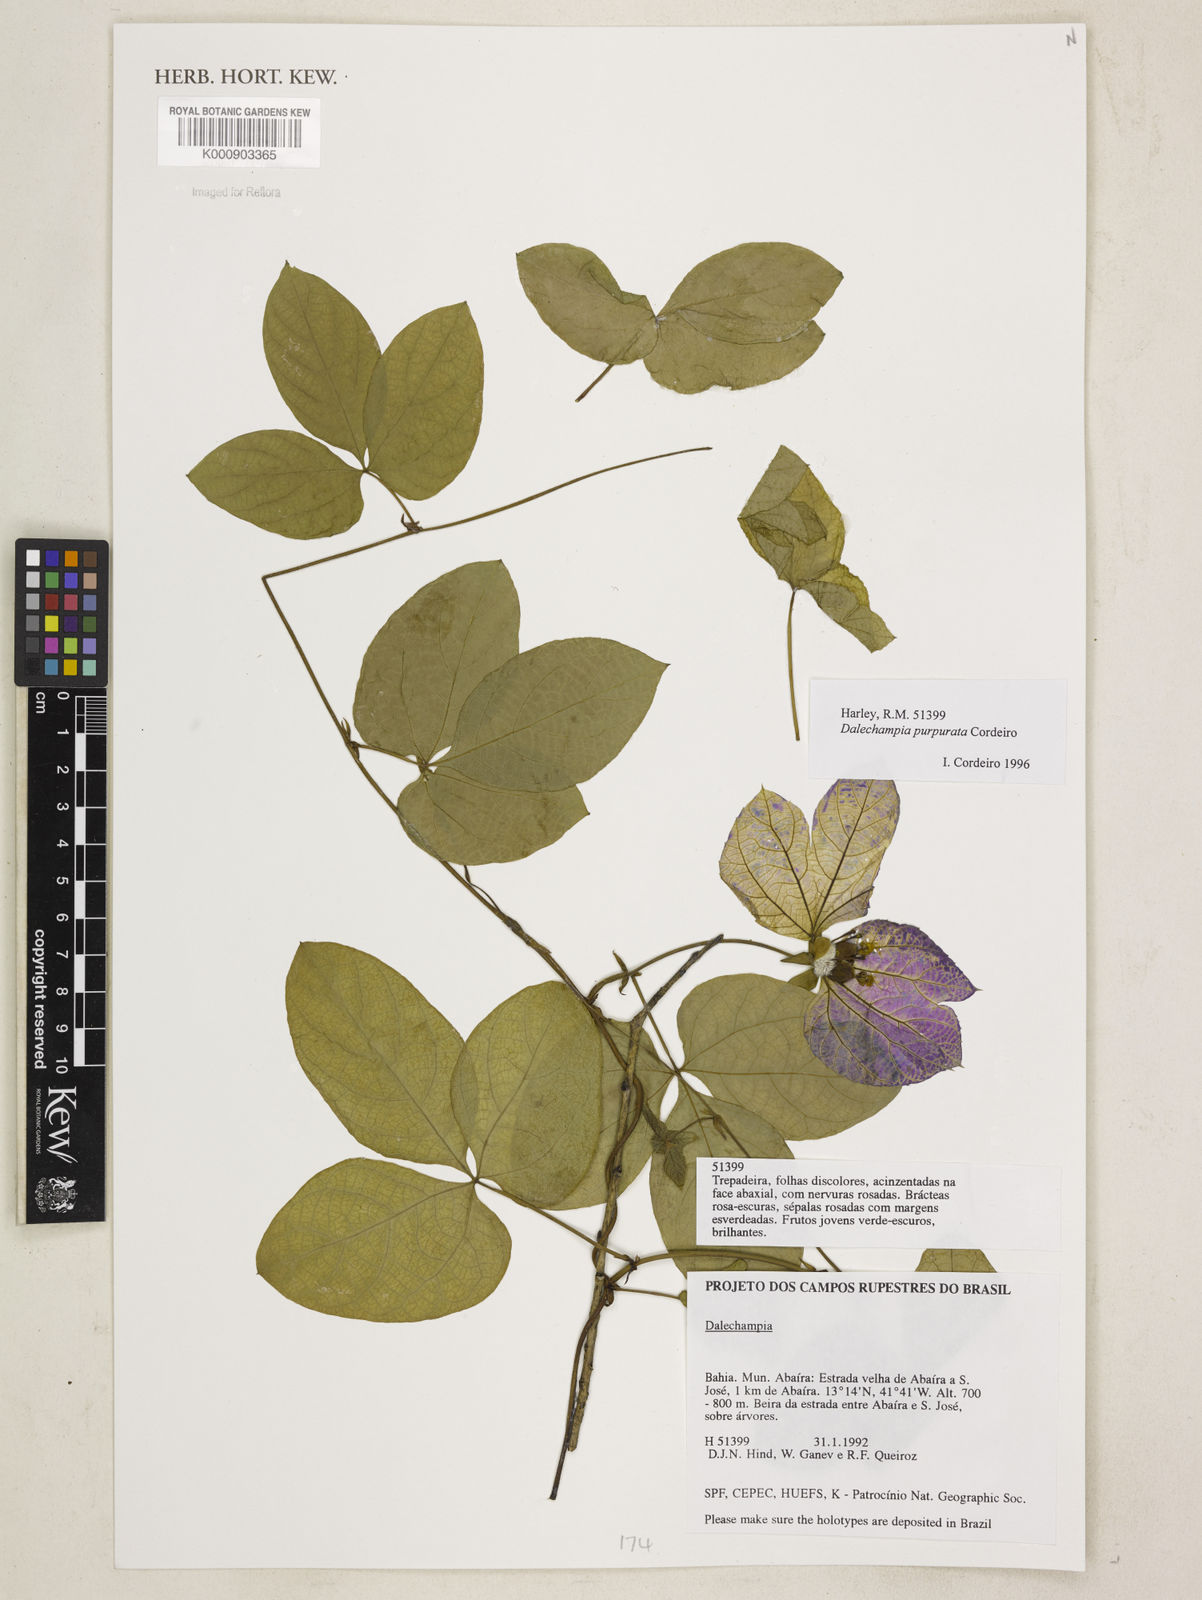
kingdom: Plantae
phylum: Tracheophyta
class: Magnoliopsida
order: Malpighiales
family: Euphorbiaceae
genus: Dalechampia
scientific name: Dalechampia purpurata
